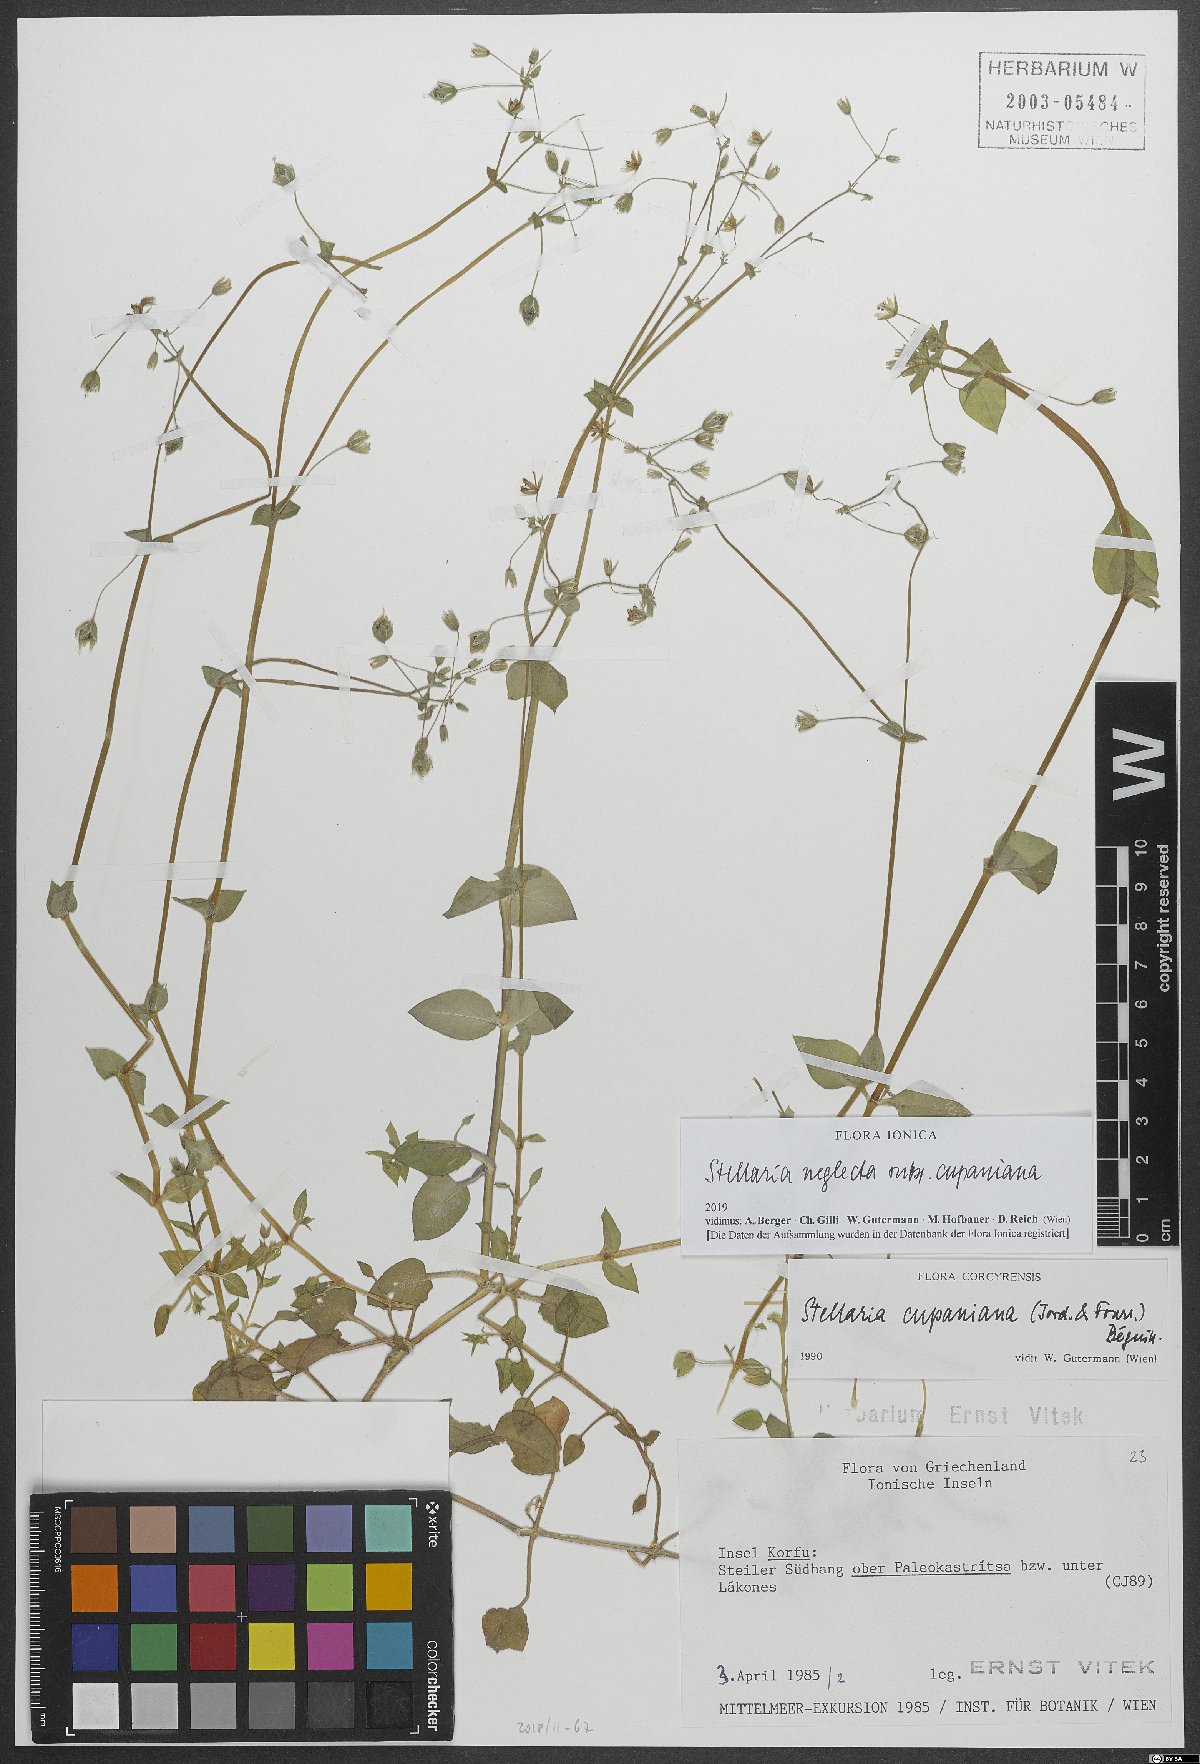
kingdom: Plantae
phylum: Tracheophyta
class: Magnoliopsida
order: Caryophyllales
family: Caryophyllaceae
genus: Stellaria
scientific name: Stellaria cupaniana
